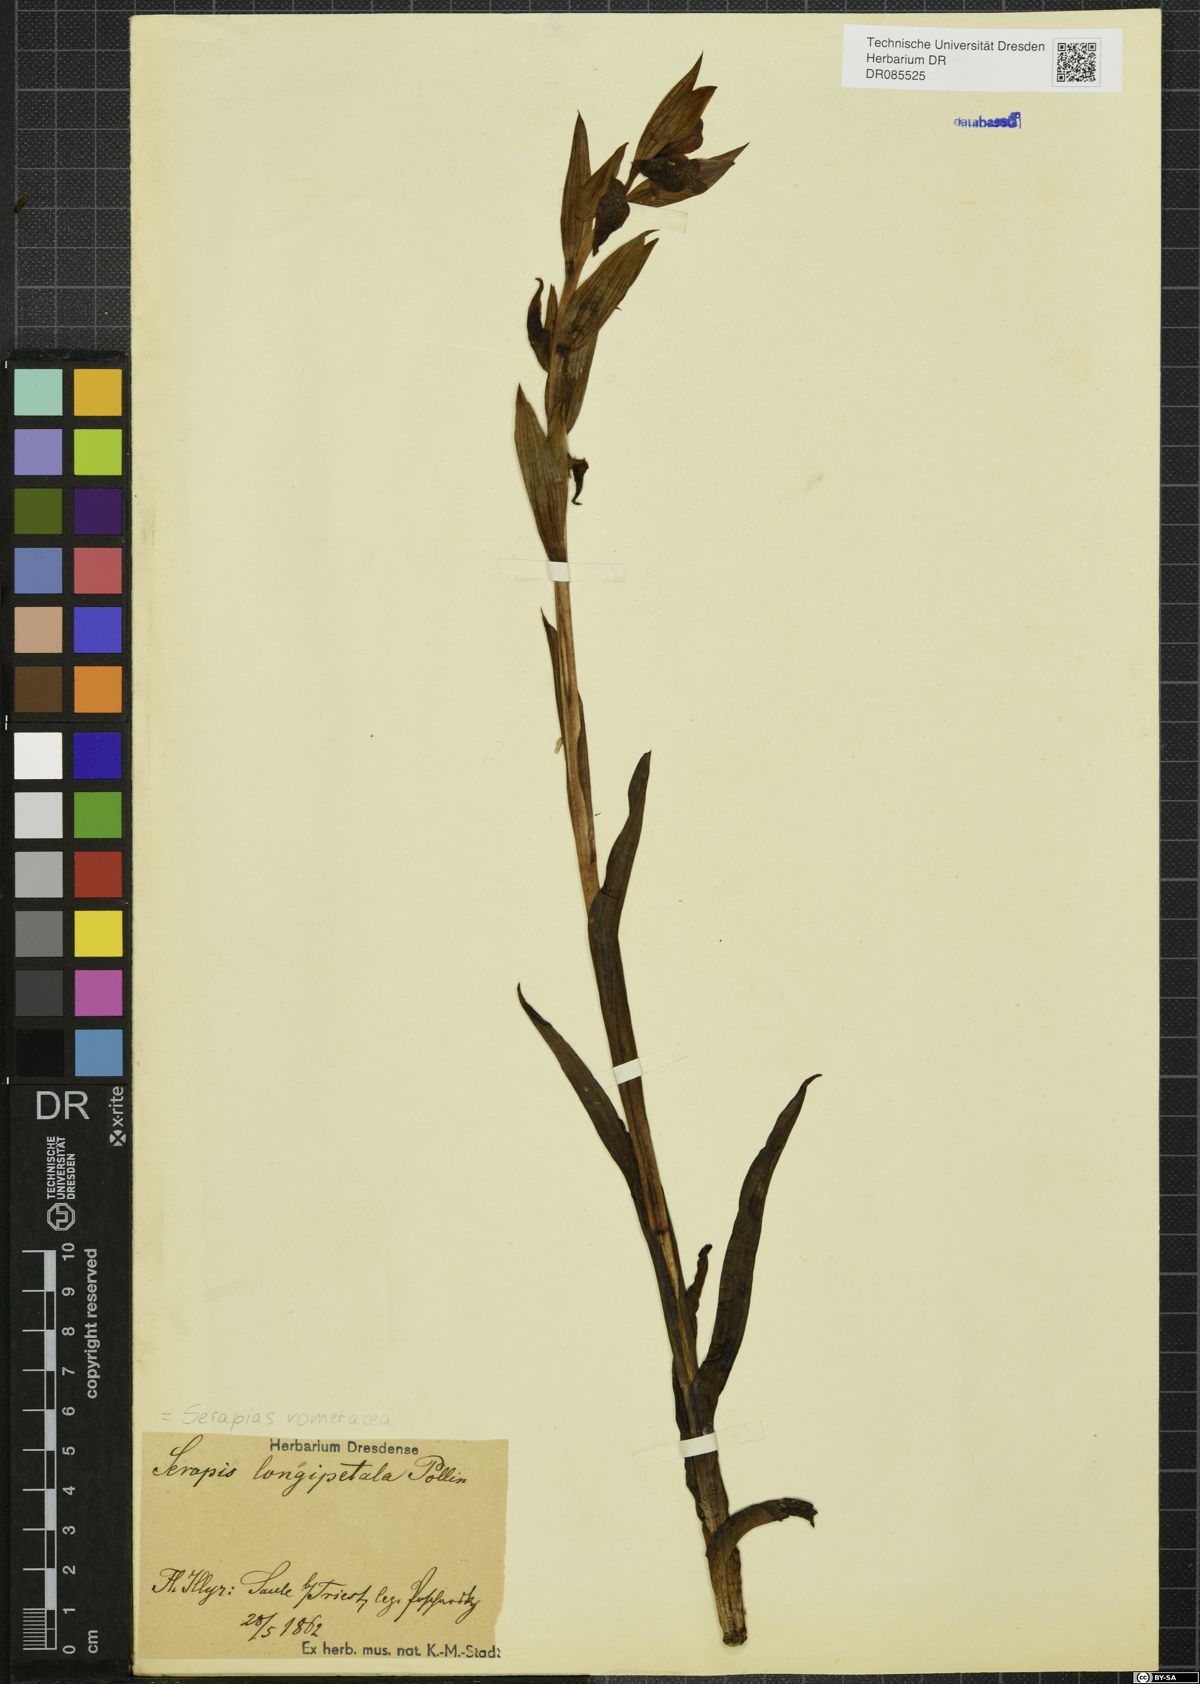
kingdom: Plantae
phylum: Tracheophyta
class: Liliopsida
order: Asparagales
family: Orchidaceae
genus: Serapias
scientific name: Serapias vomeracea
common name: Long-lipped tongue-orchid
